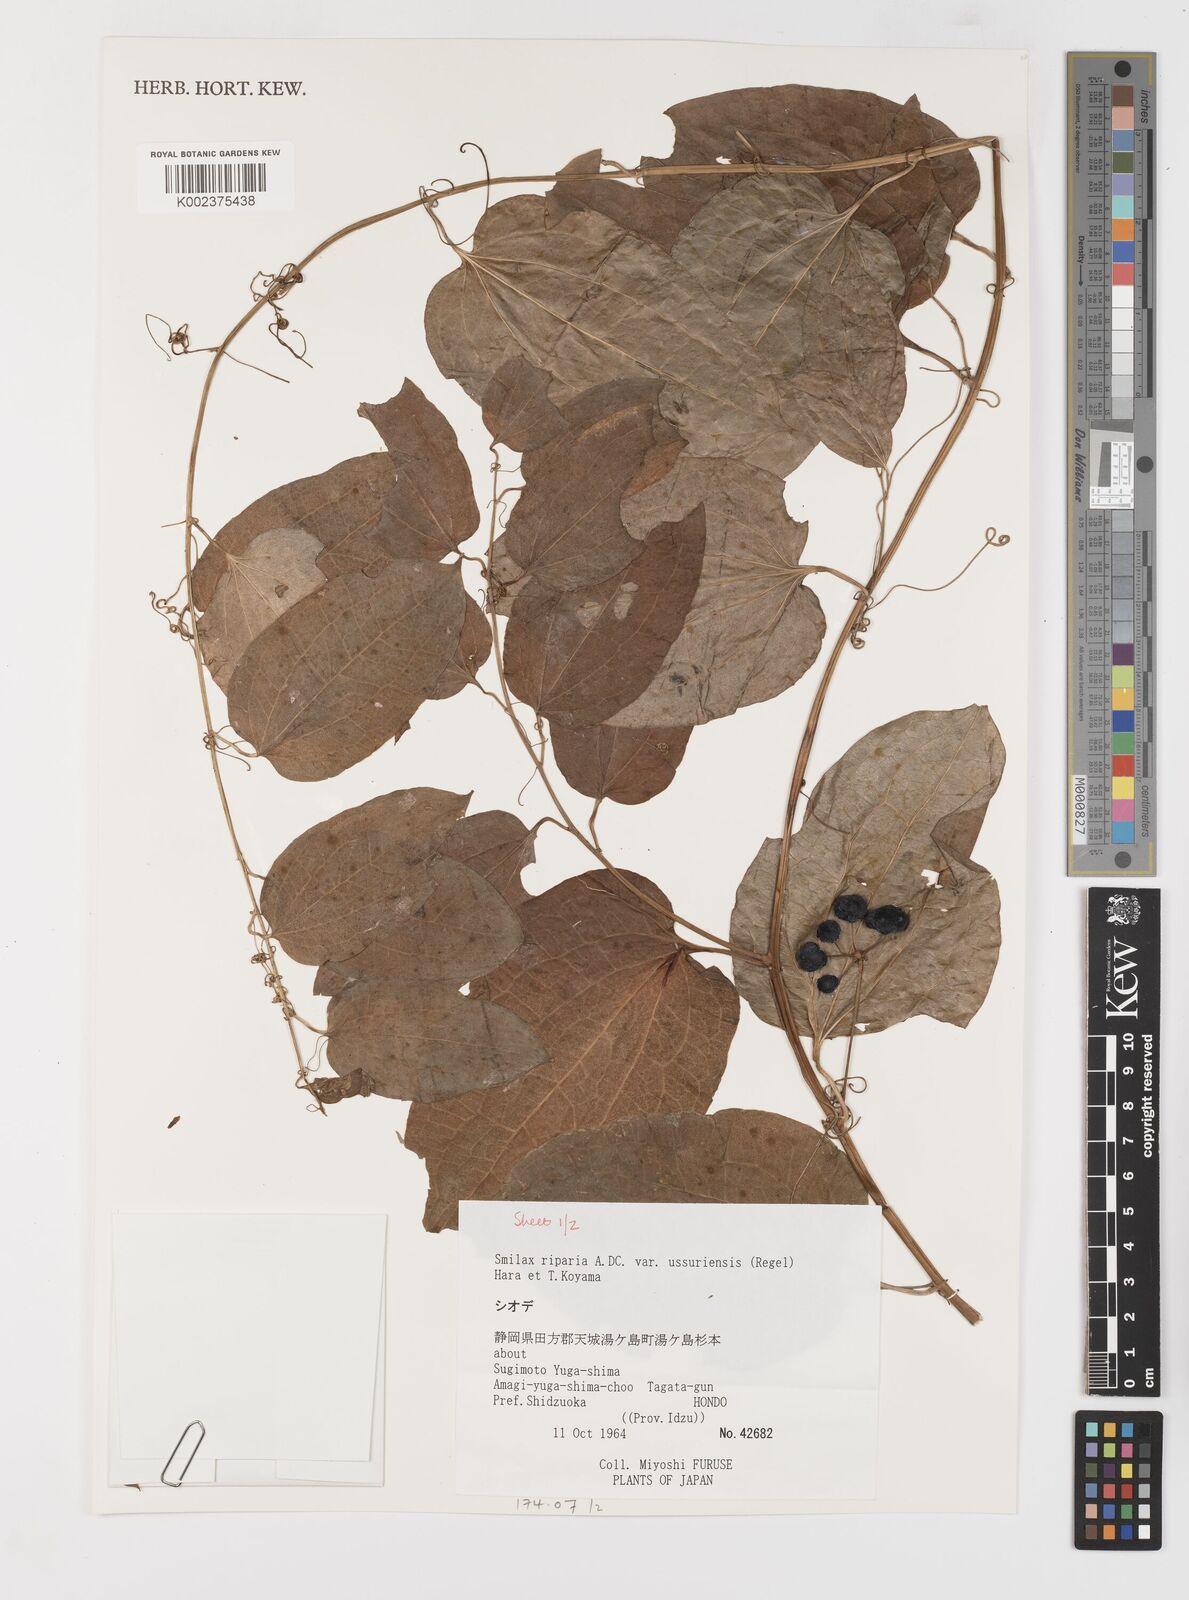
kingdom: Plantae
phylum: Tracheophyta
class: Liliopsida
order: Liliales
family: Smilacaceae
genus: Smilax
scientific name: Smilax riparia
